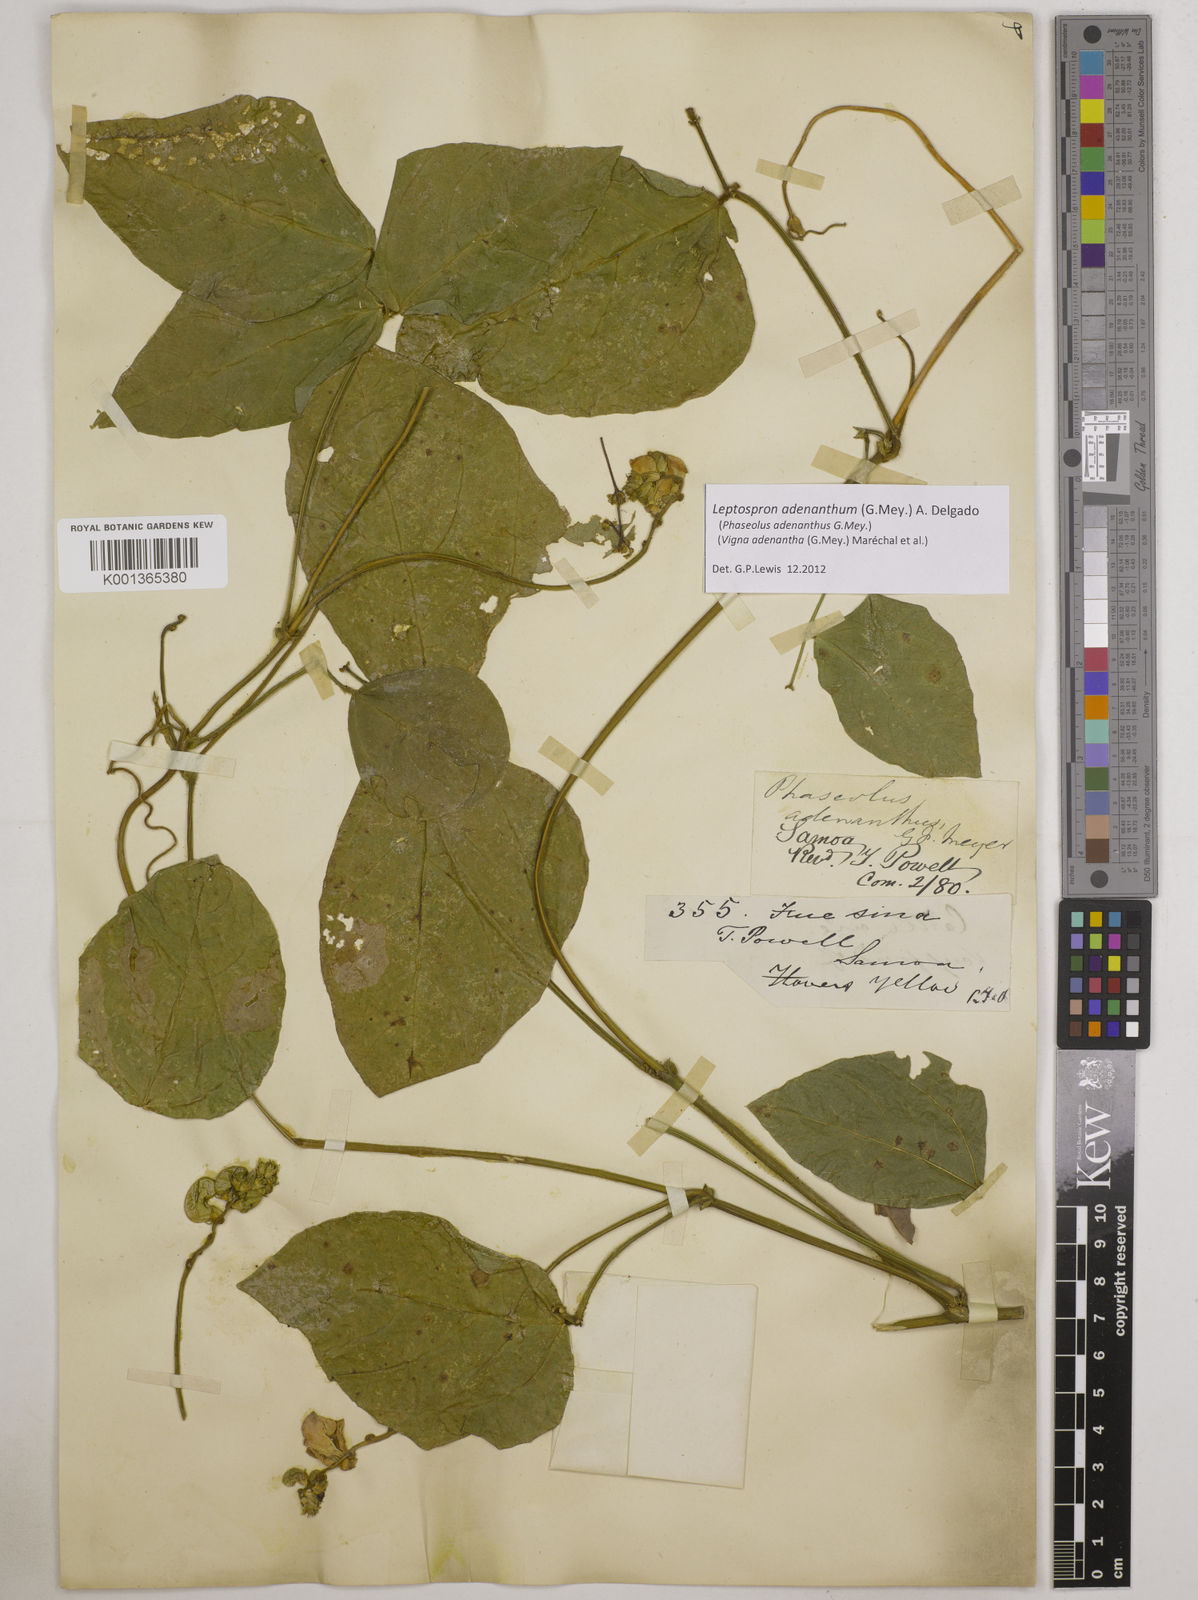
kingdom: Plantae
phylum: Tracheophyta
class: Magnoliopsida
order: Fabales
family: Fabaceae
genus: Leptospron
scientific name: Leptospron adenanthum
